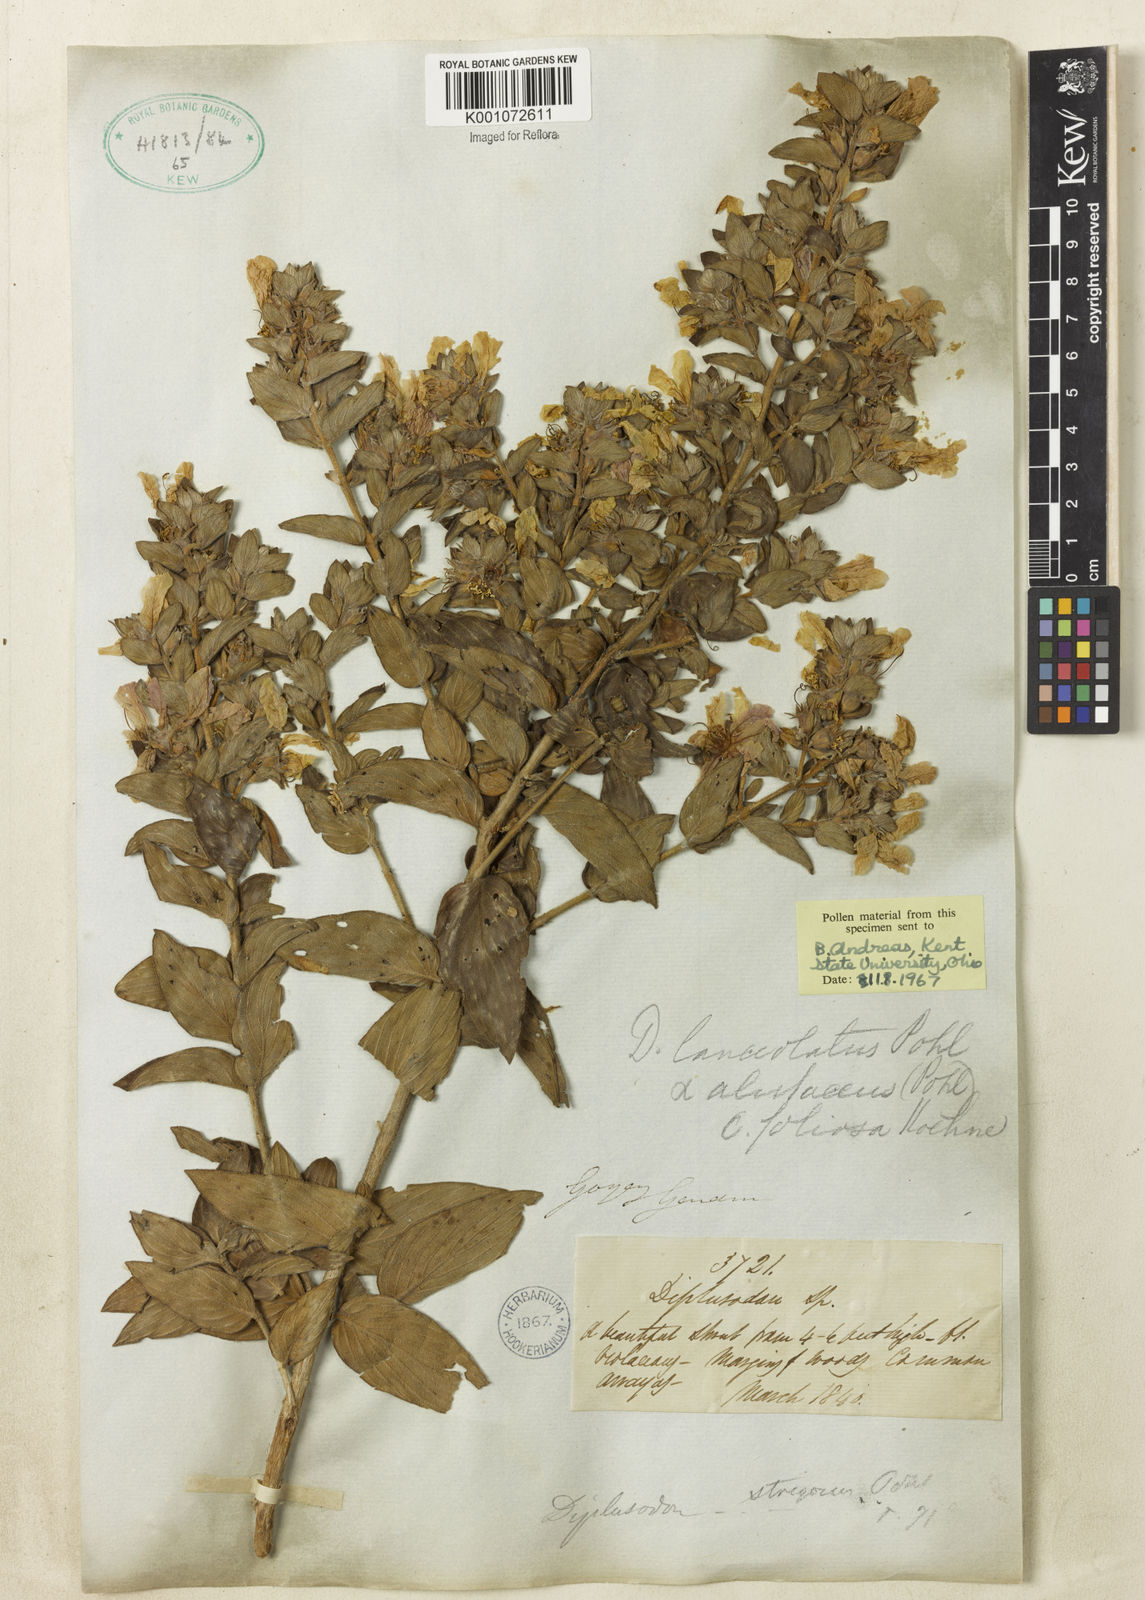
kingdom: Plantae
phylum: Tracheophyta
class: Magnoliopsida
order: Myrtales
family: Lythraceae
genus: Diplusodon
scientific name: Diplusodon lanceolatus
